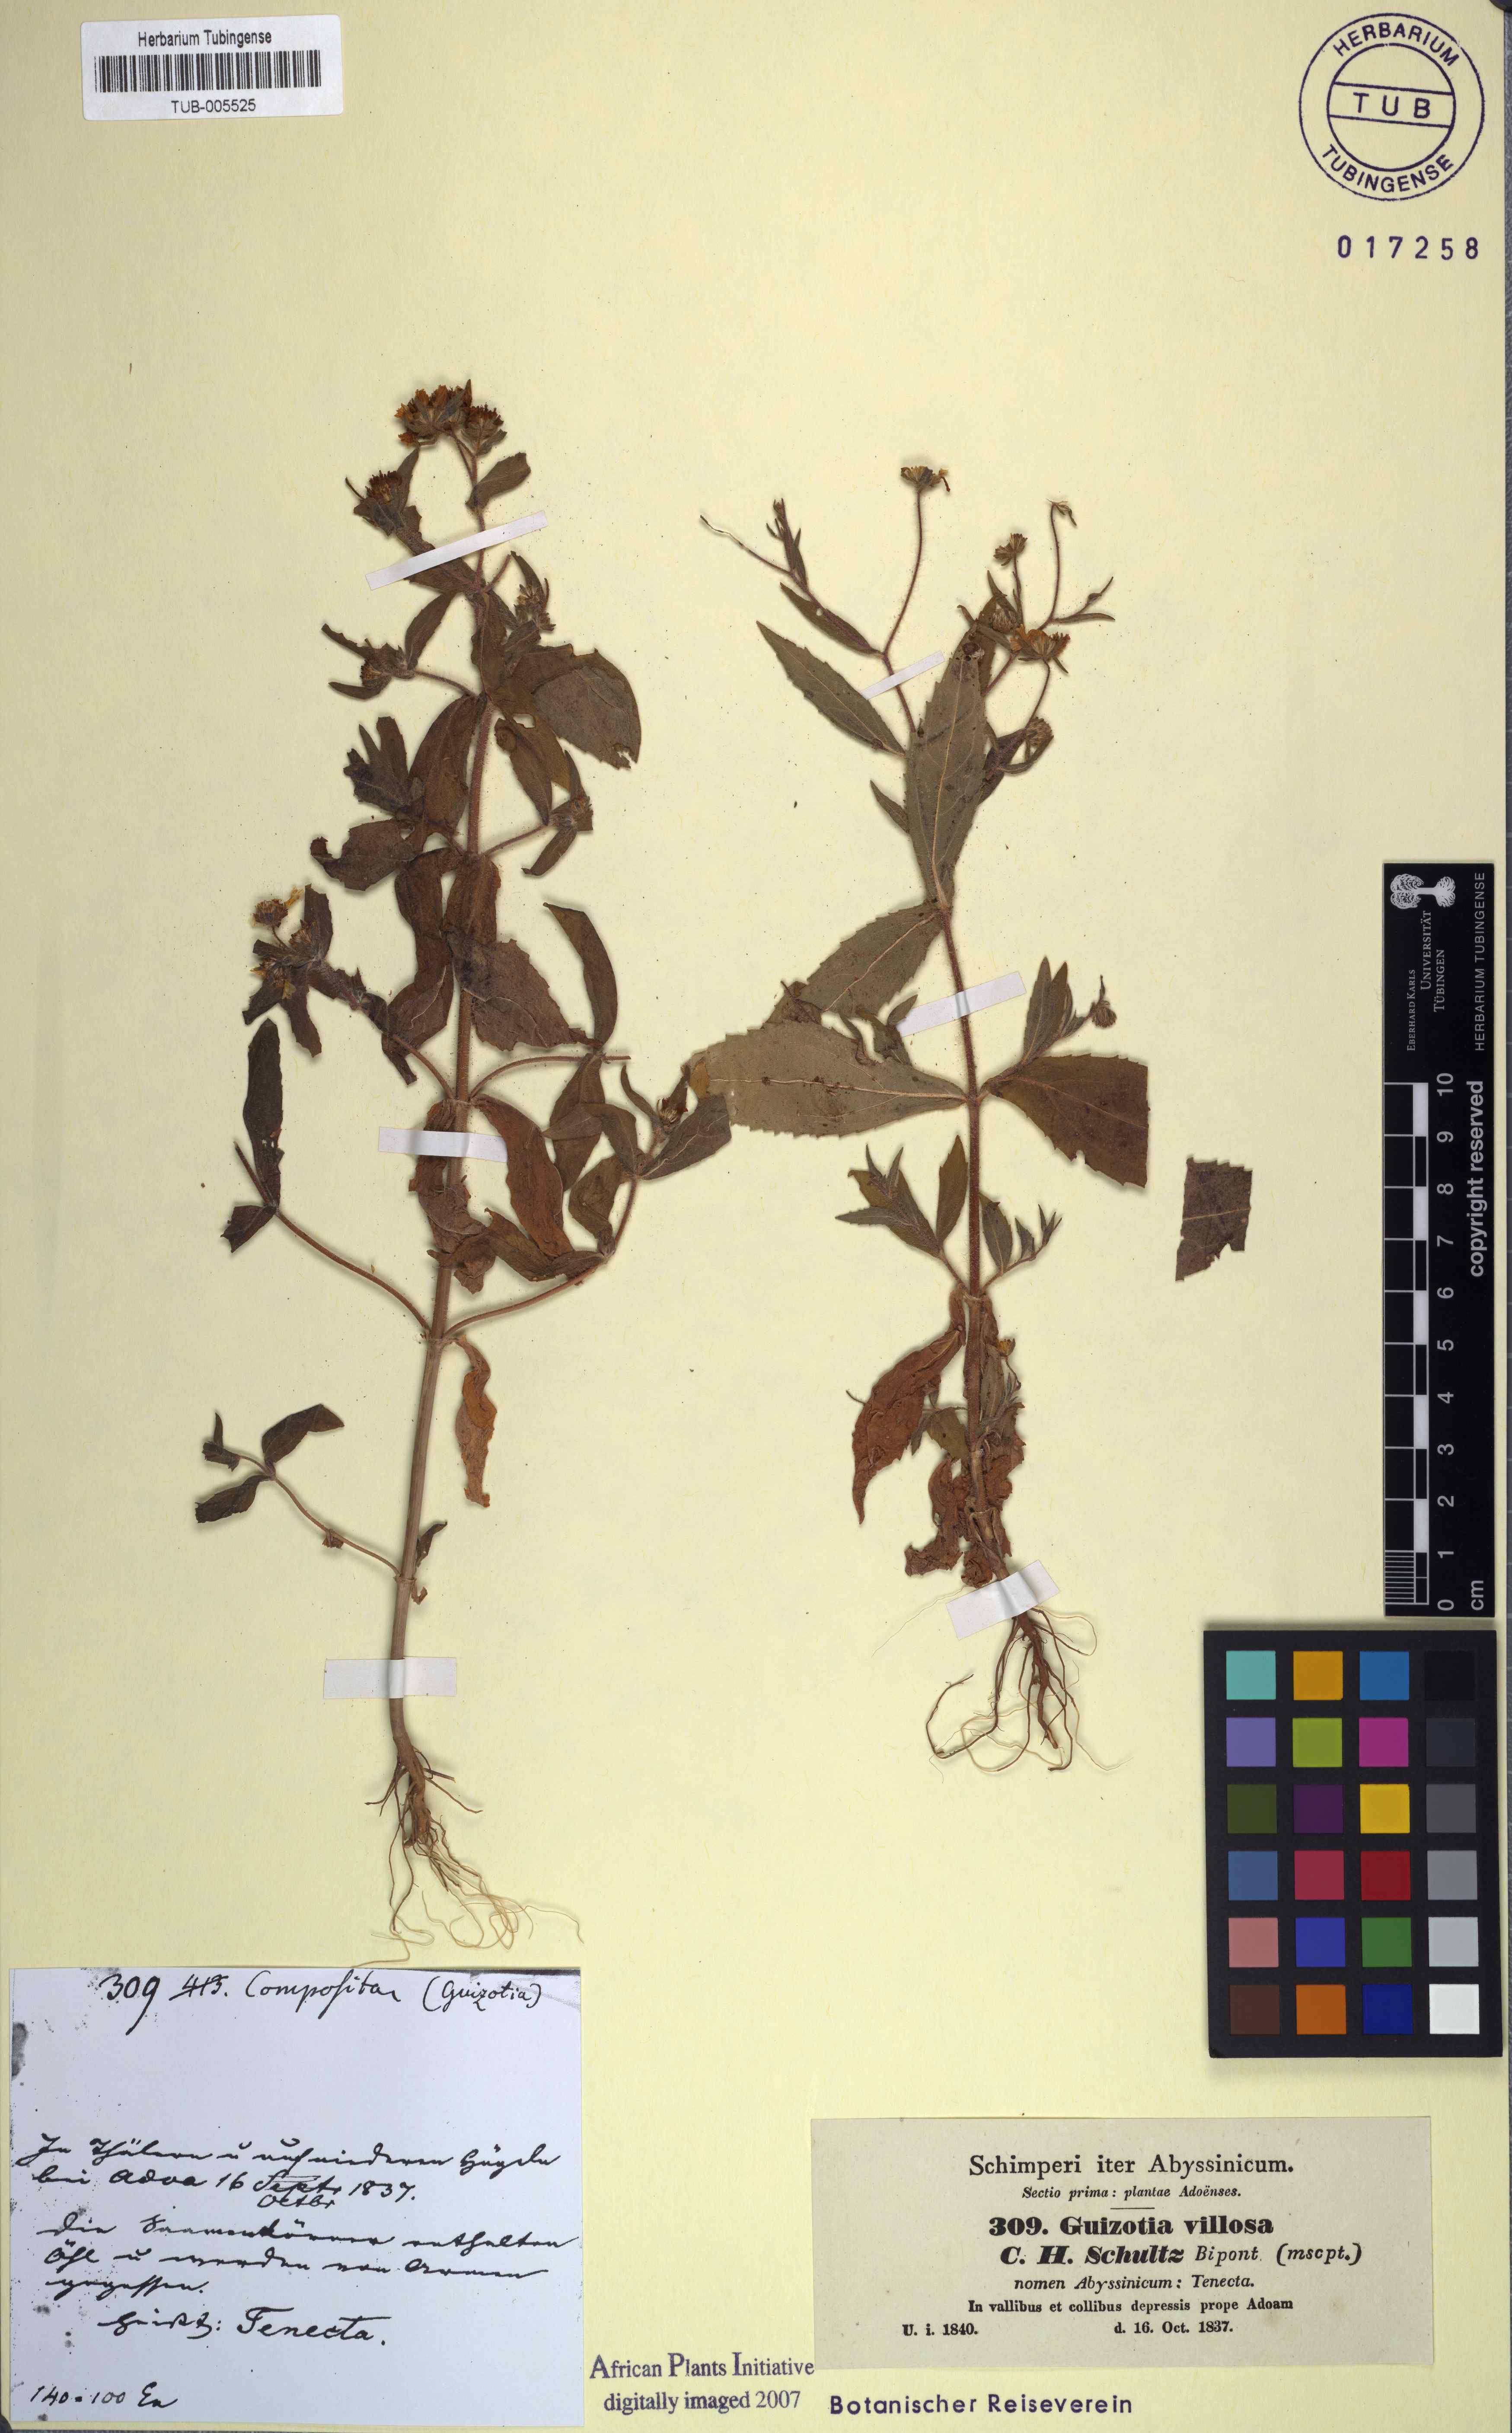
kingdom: Plantae
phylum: Tracheophyta
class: Magnoliopsida
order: Asterales
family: Asteraceae
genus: Guizotia
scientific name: Guizotia villosa
